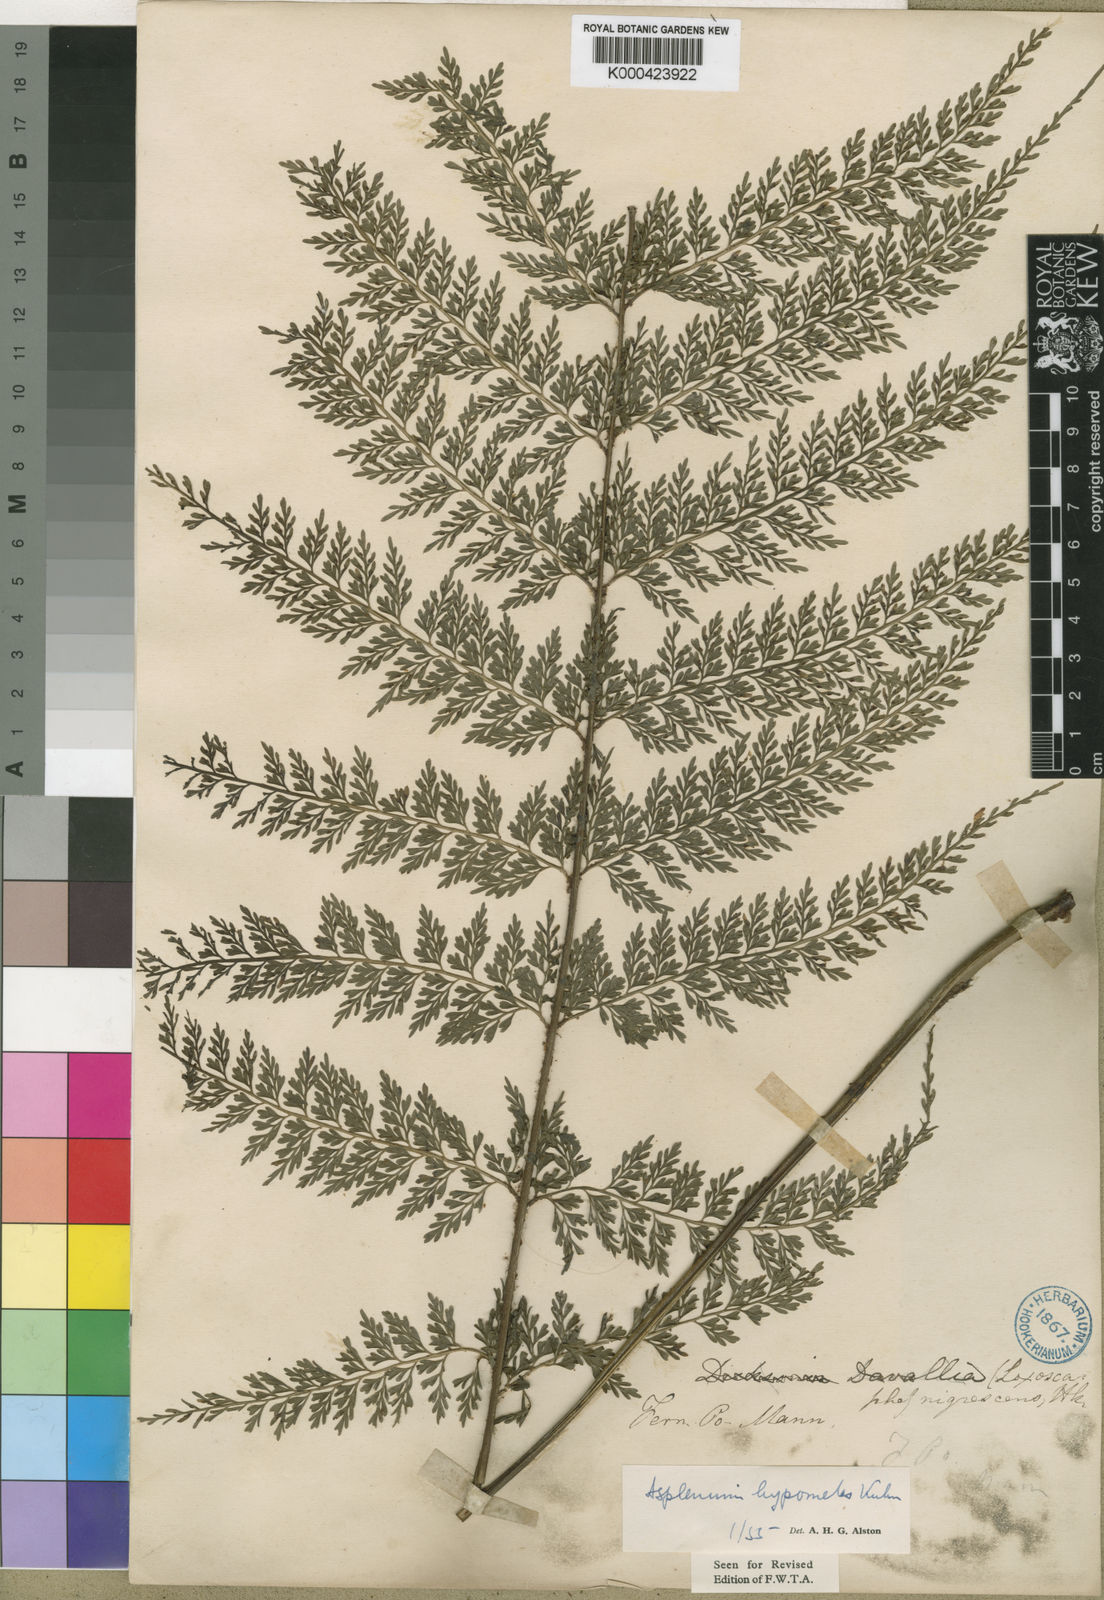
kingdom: Plantae
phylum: Tracheophyta
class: Polypodiopsida
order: Polypodiales
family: Aspleniaceae
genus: Asplenium
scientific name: Asplenium hypomelas
